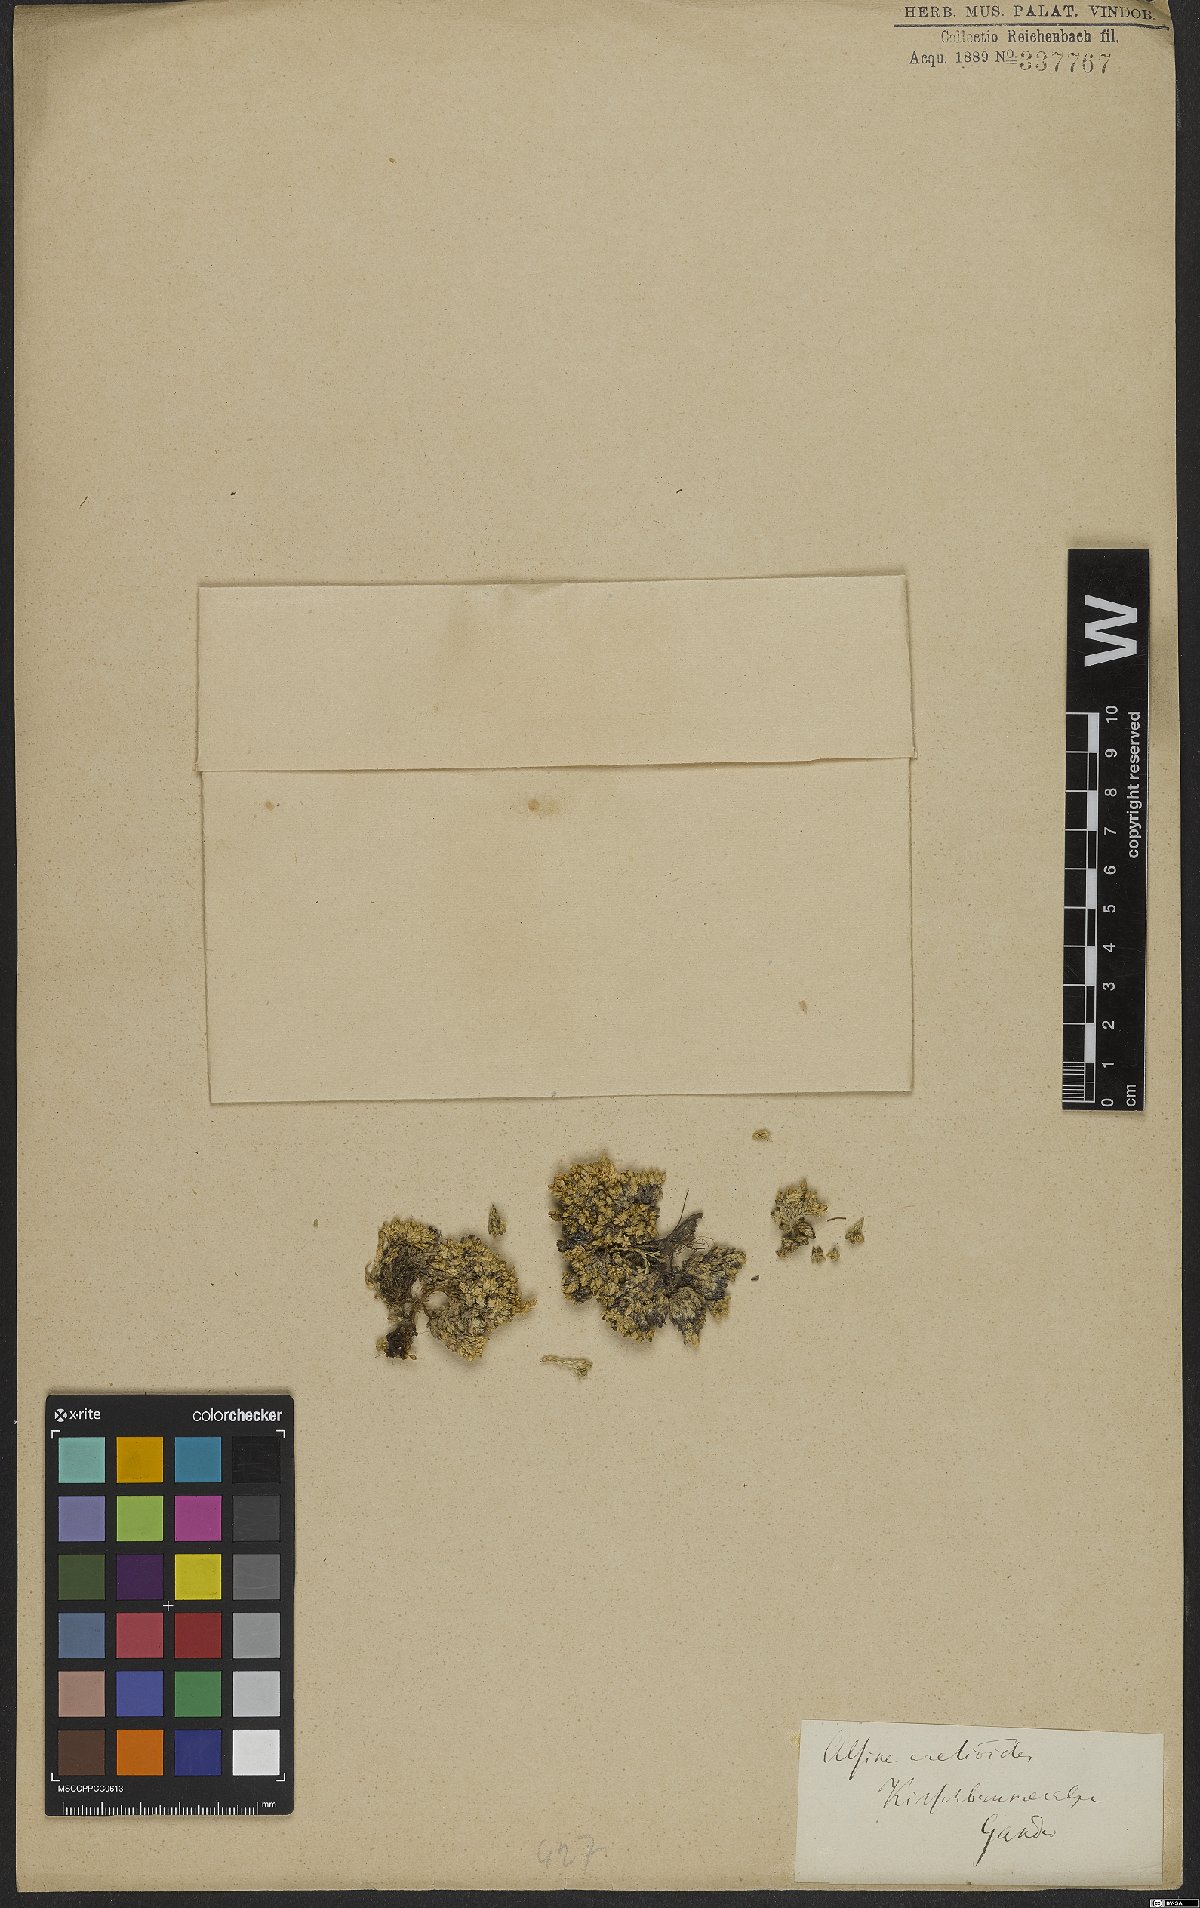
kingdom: Plantae
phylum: Tracheophyta
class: Magnoliopsida
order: Caryophyllales
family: Caryophyllaceae
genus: Facchinia
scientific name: Facchinia cherlerioides
